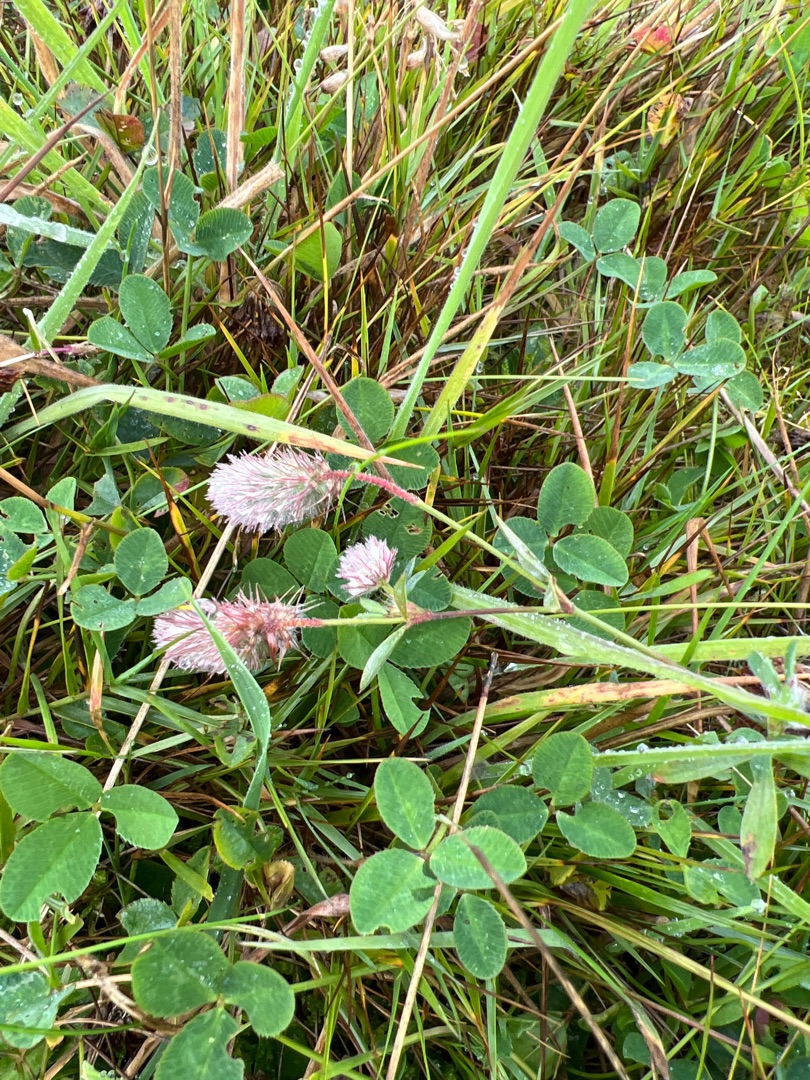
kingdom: Plantae
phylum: Tracheophyta
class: Magnoliopsida
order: Fabales
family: Fabaceae
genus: Trifolium
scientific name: Trifolium arvense
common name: Hare-kløver
